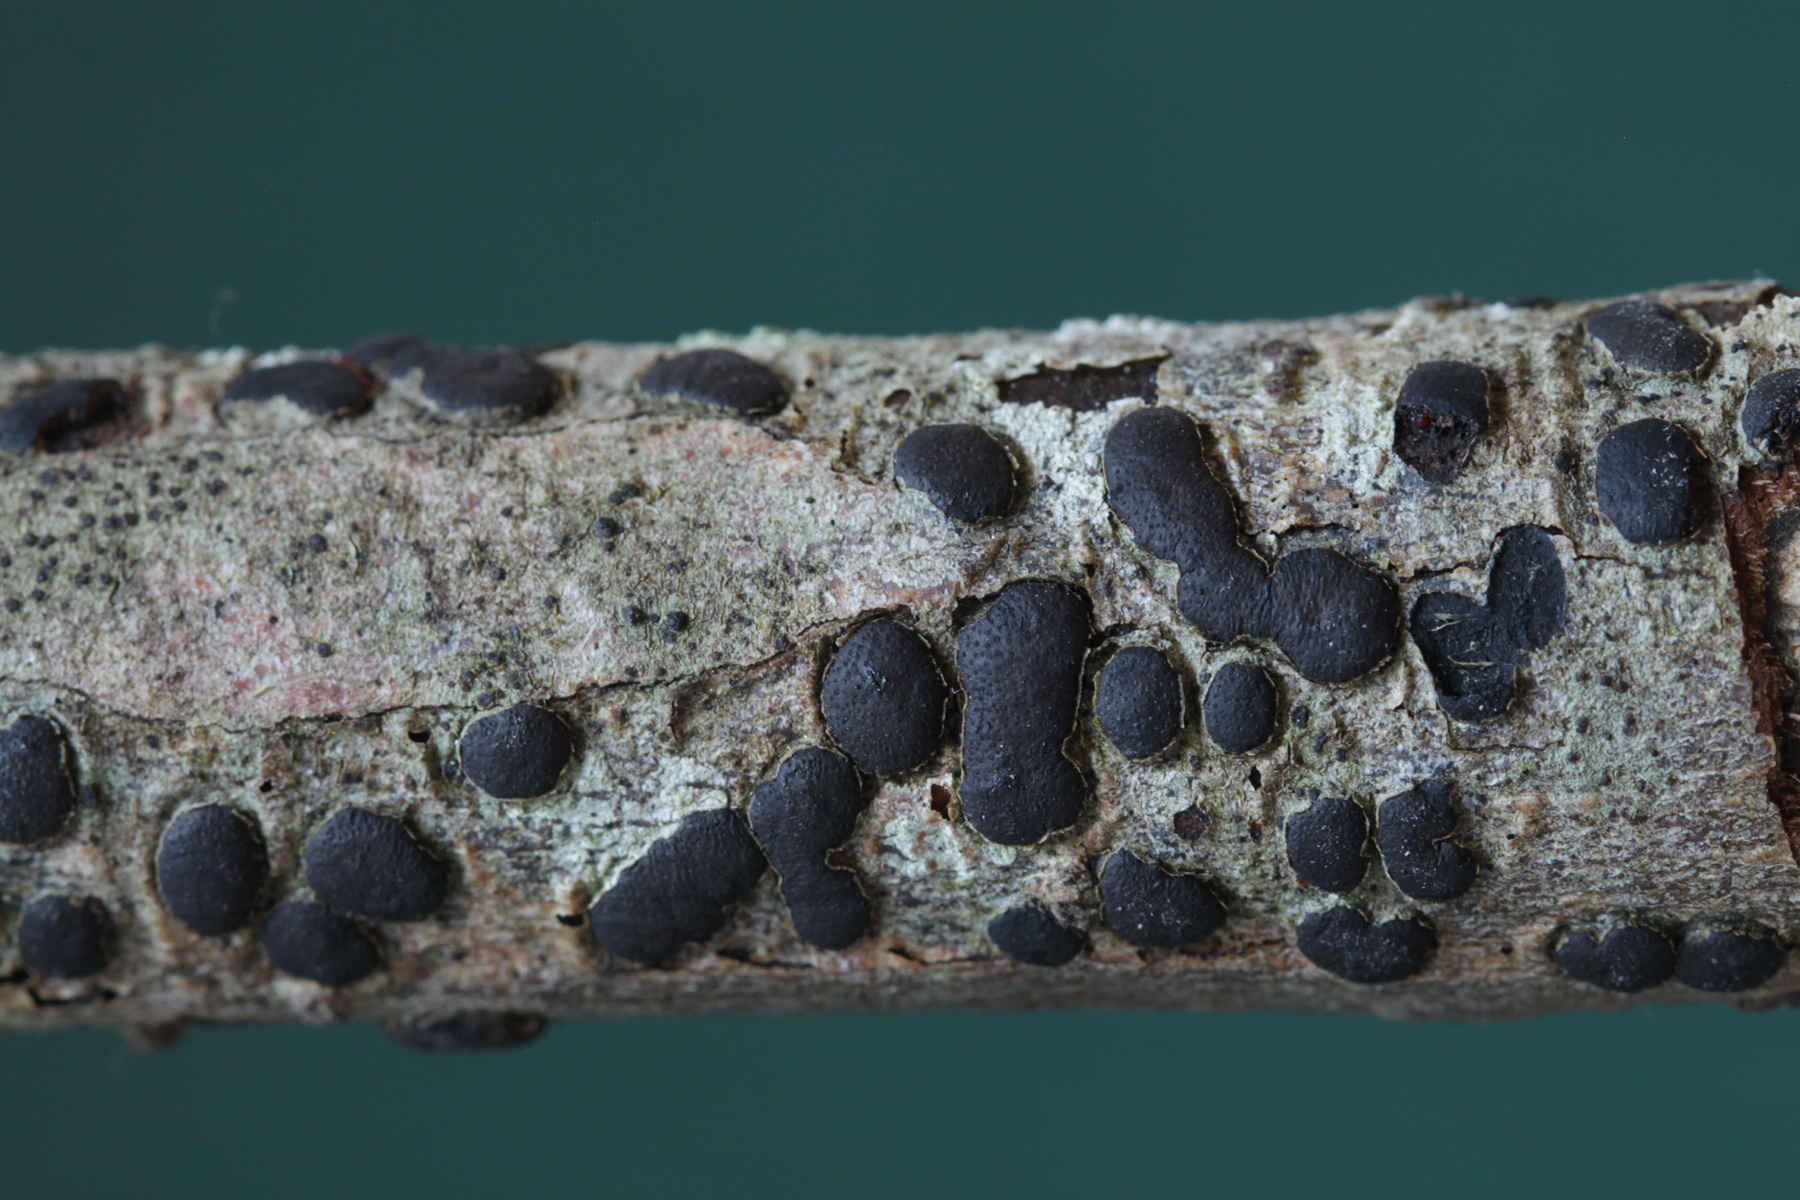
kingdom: Fungi
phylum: Ascomycota
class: Sordariomycetes
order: Xylariales
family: Diatrypaceae
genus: Diatrype
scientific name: Diatrype bullata
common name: pile-kulskorpe
